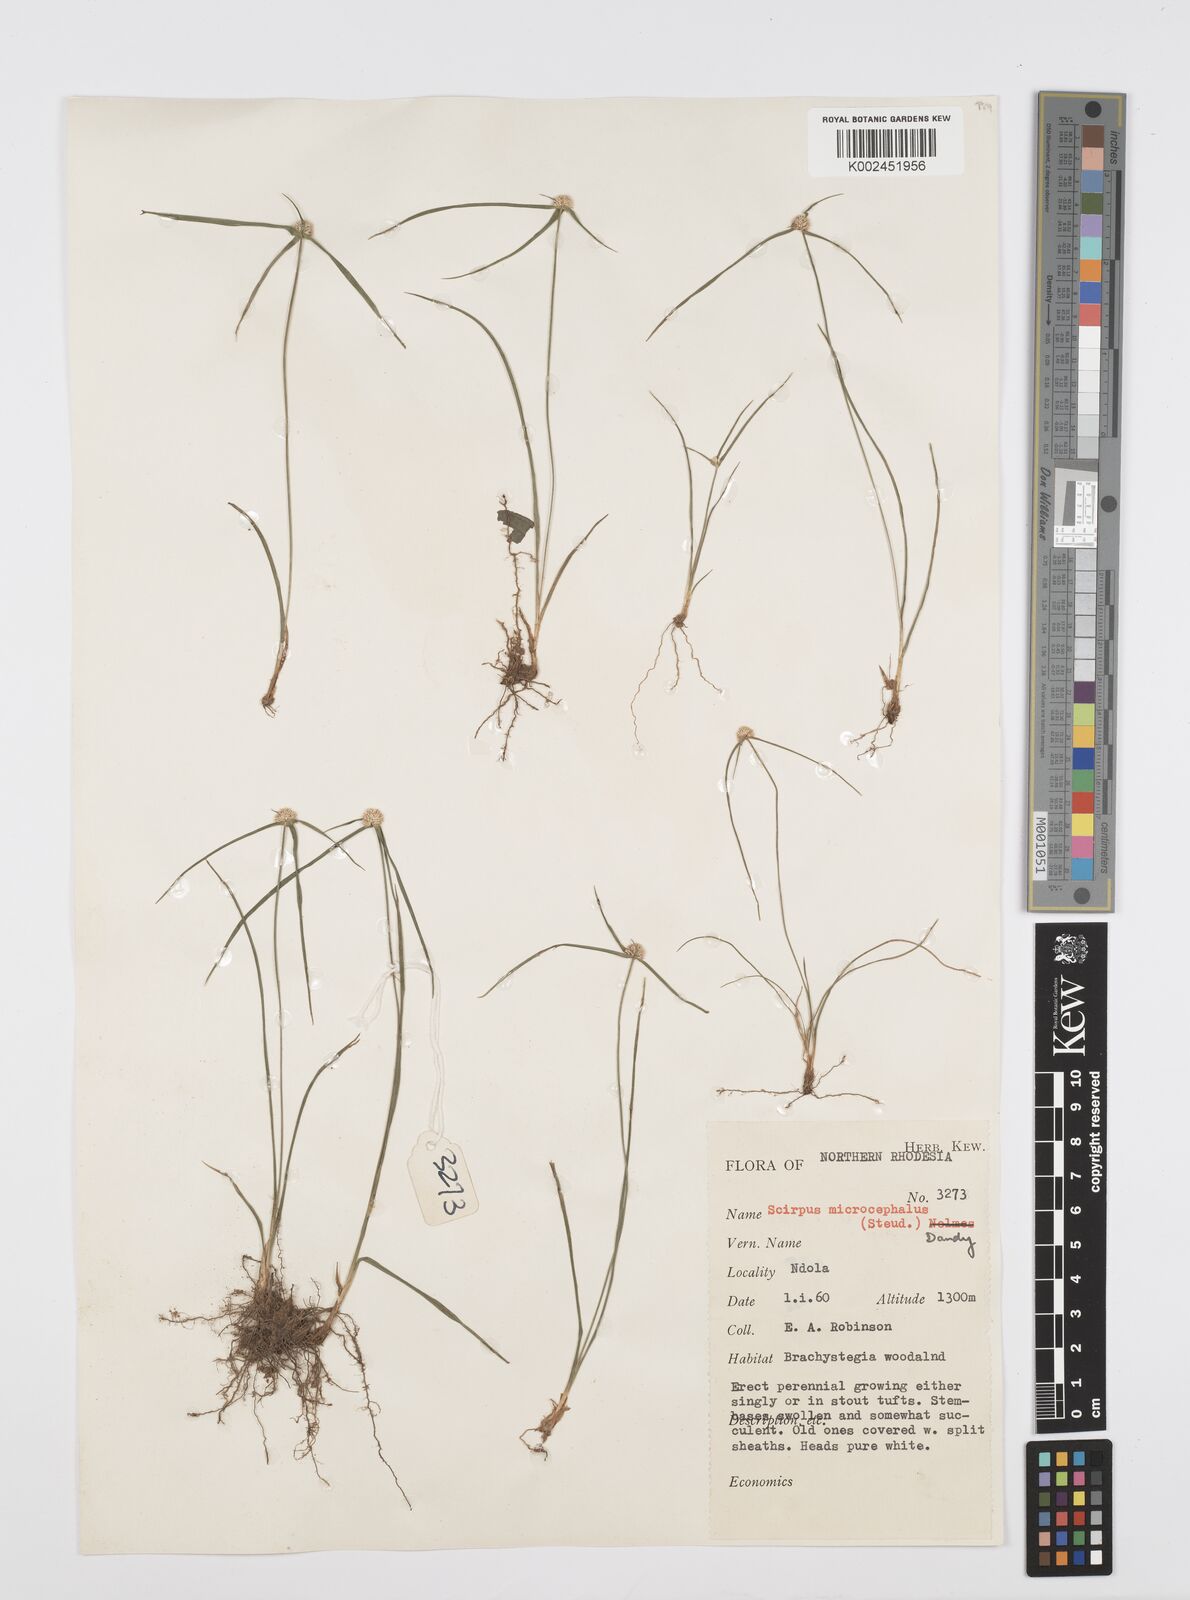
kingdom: Plantae
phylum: Tracheophyta
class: Liliopsida
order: Poales
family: Cyperaceae
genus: Cyperus
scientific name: Cyperus microcephalus
